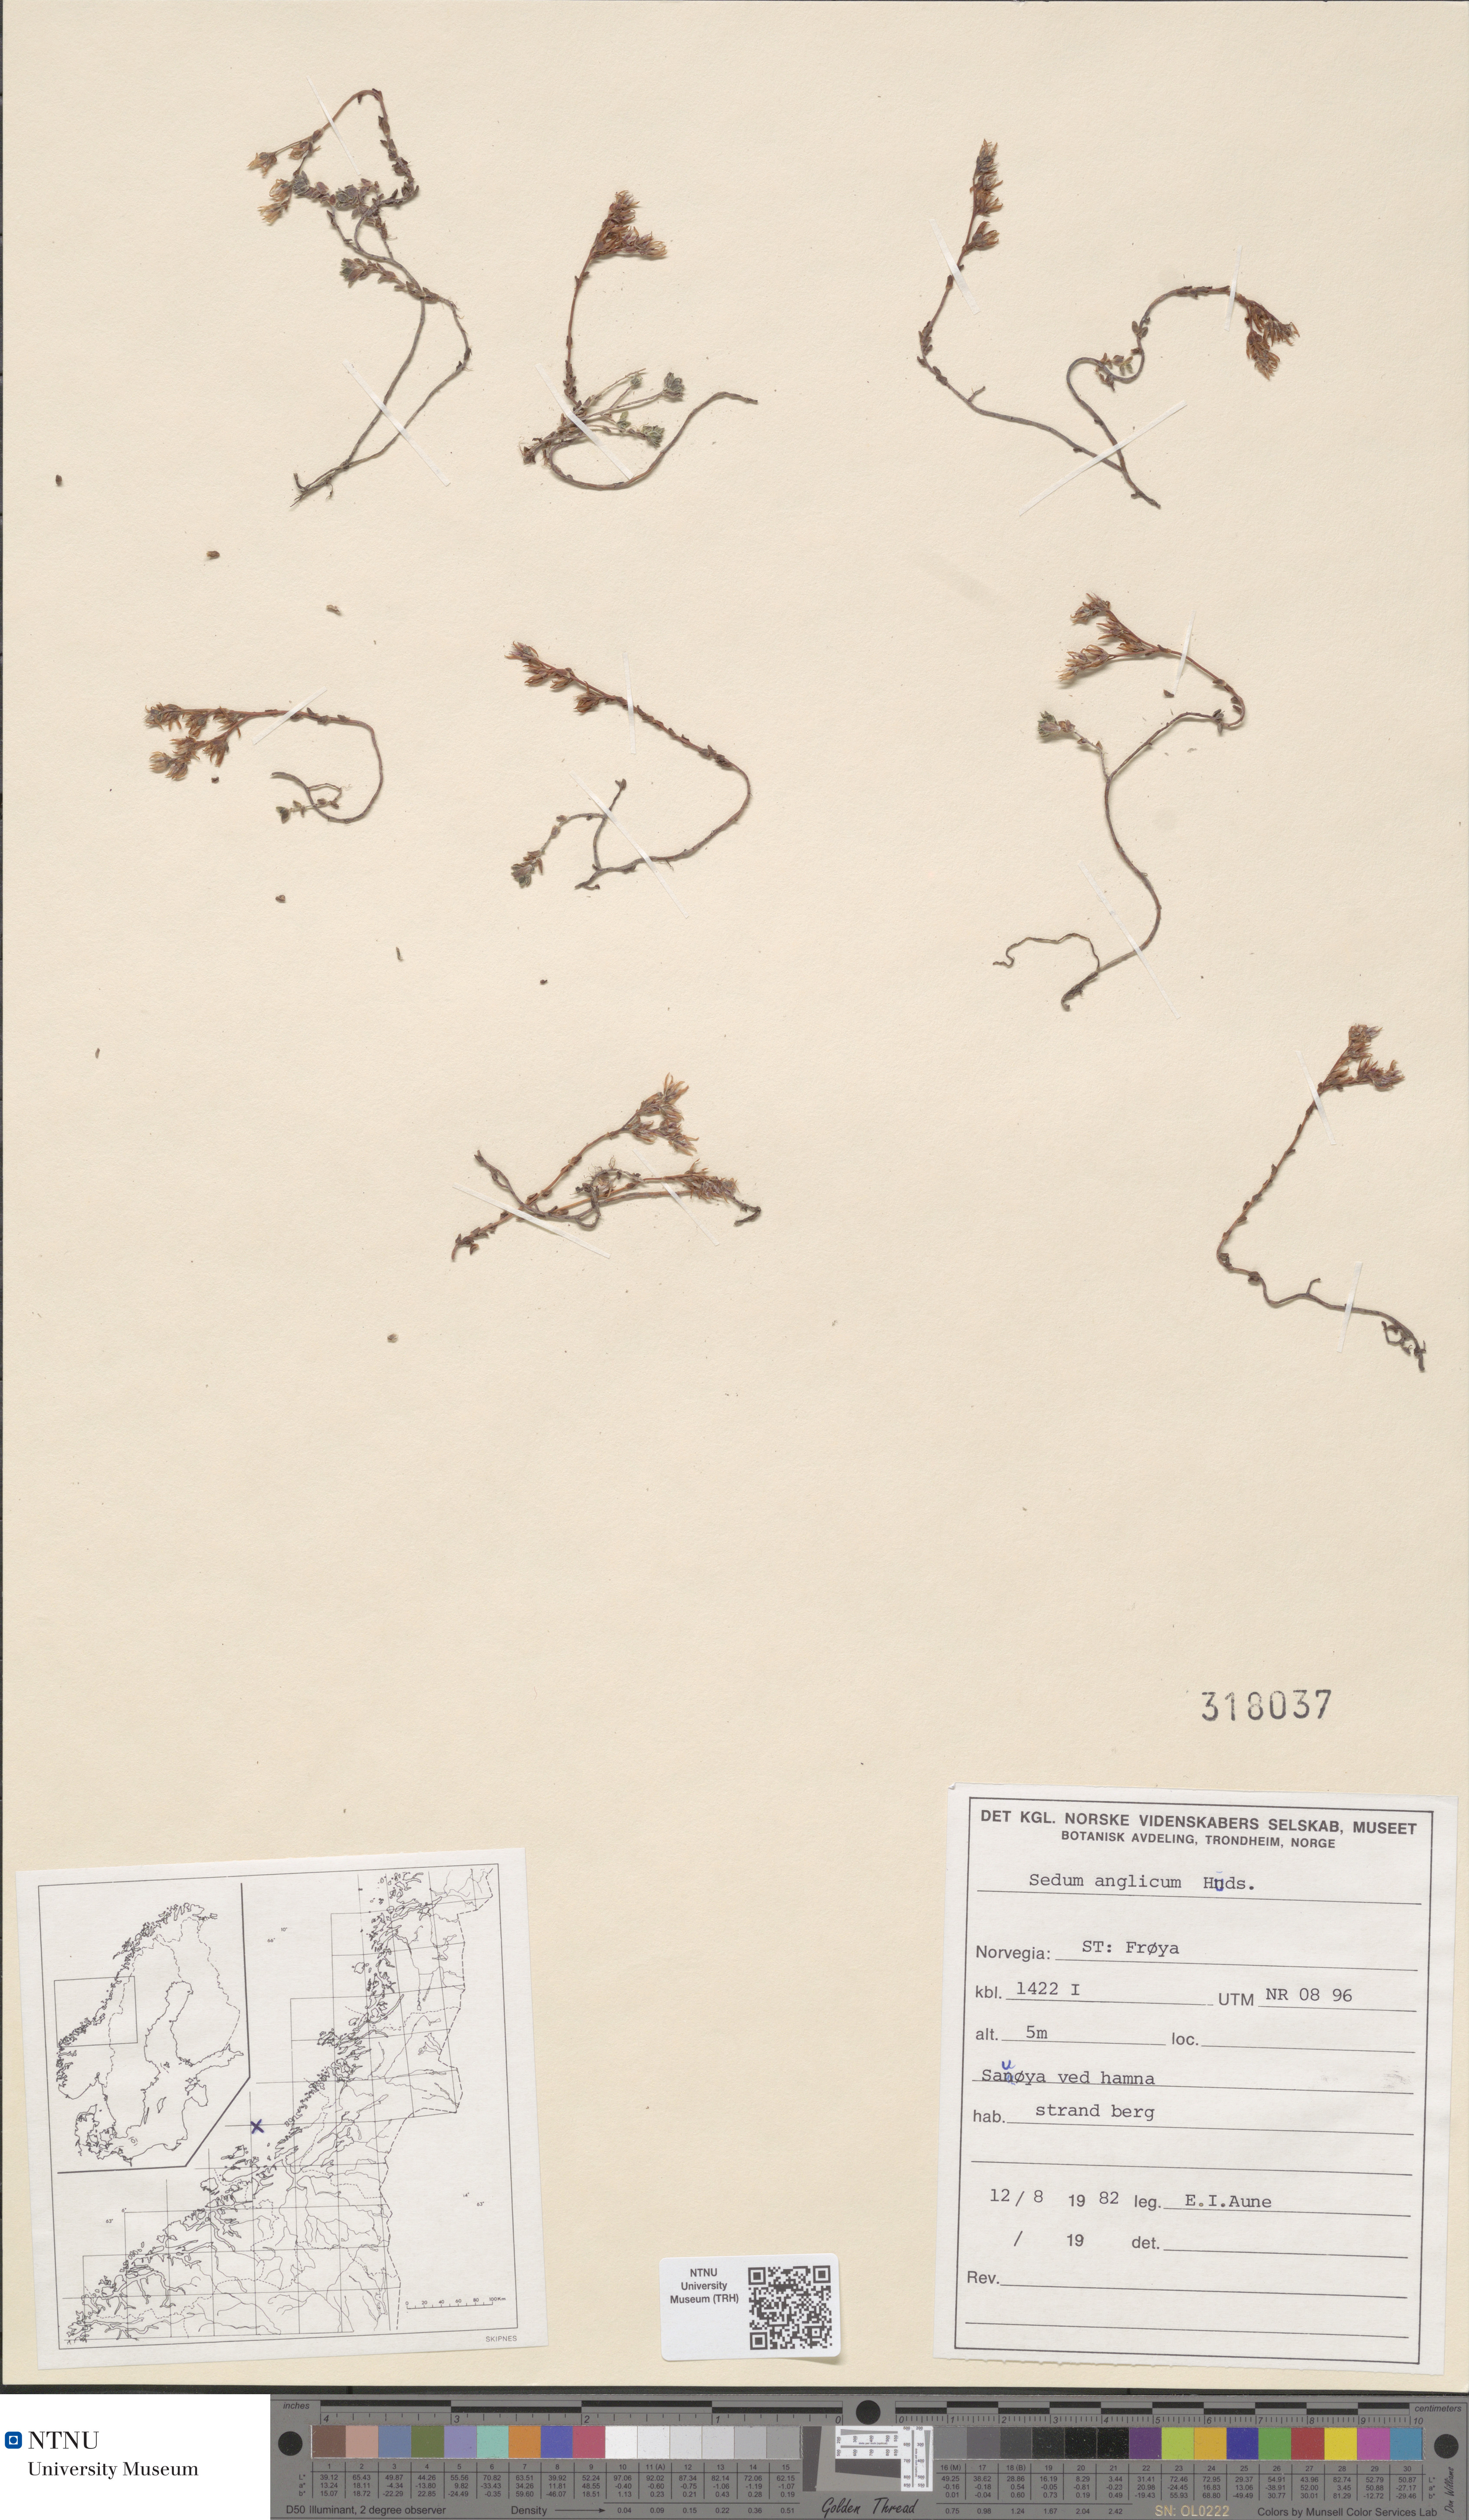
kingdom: Plantae
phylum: Tracheophyta
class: Magnoliopsida
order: Saxifragales
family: Crassulaceae
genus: Sedum
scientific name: Sedum anglicum
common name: English stonecrop
